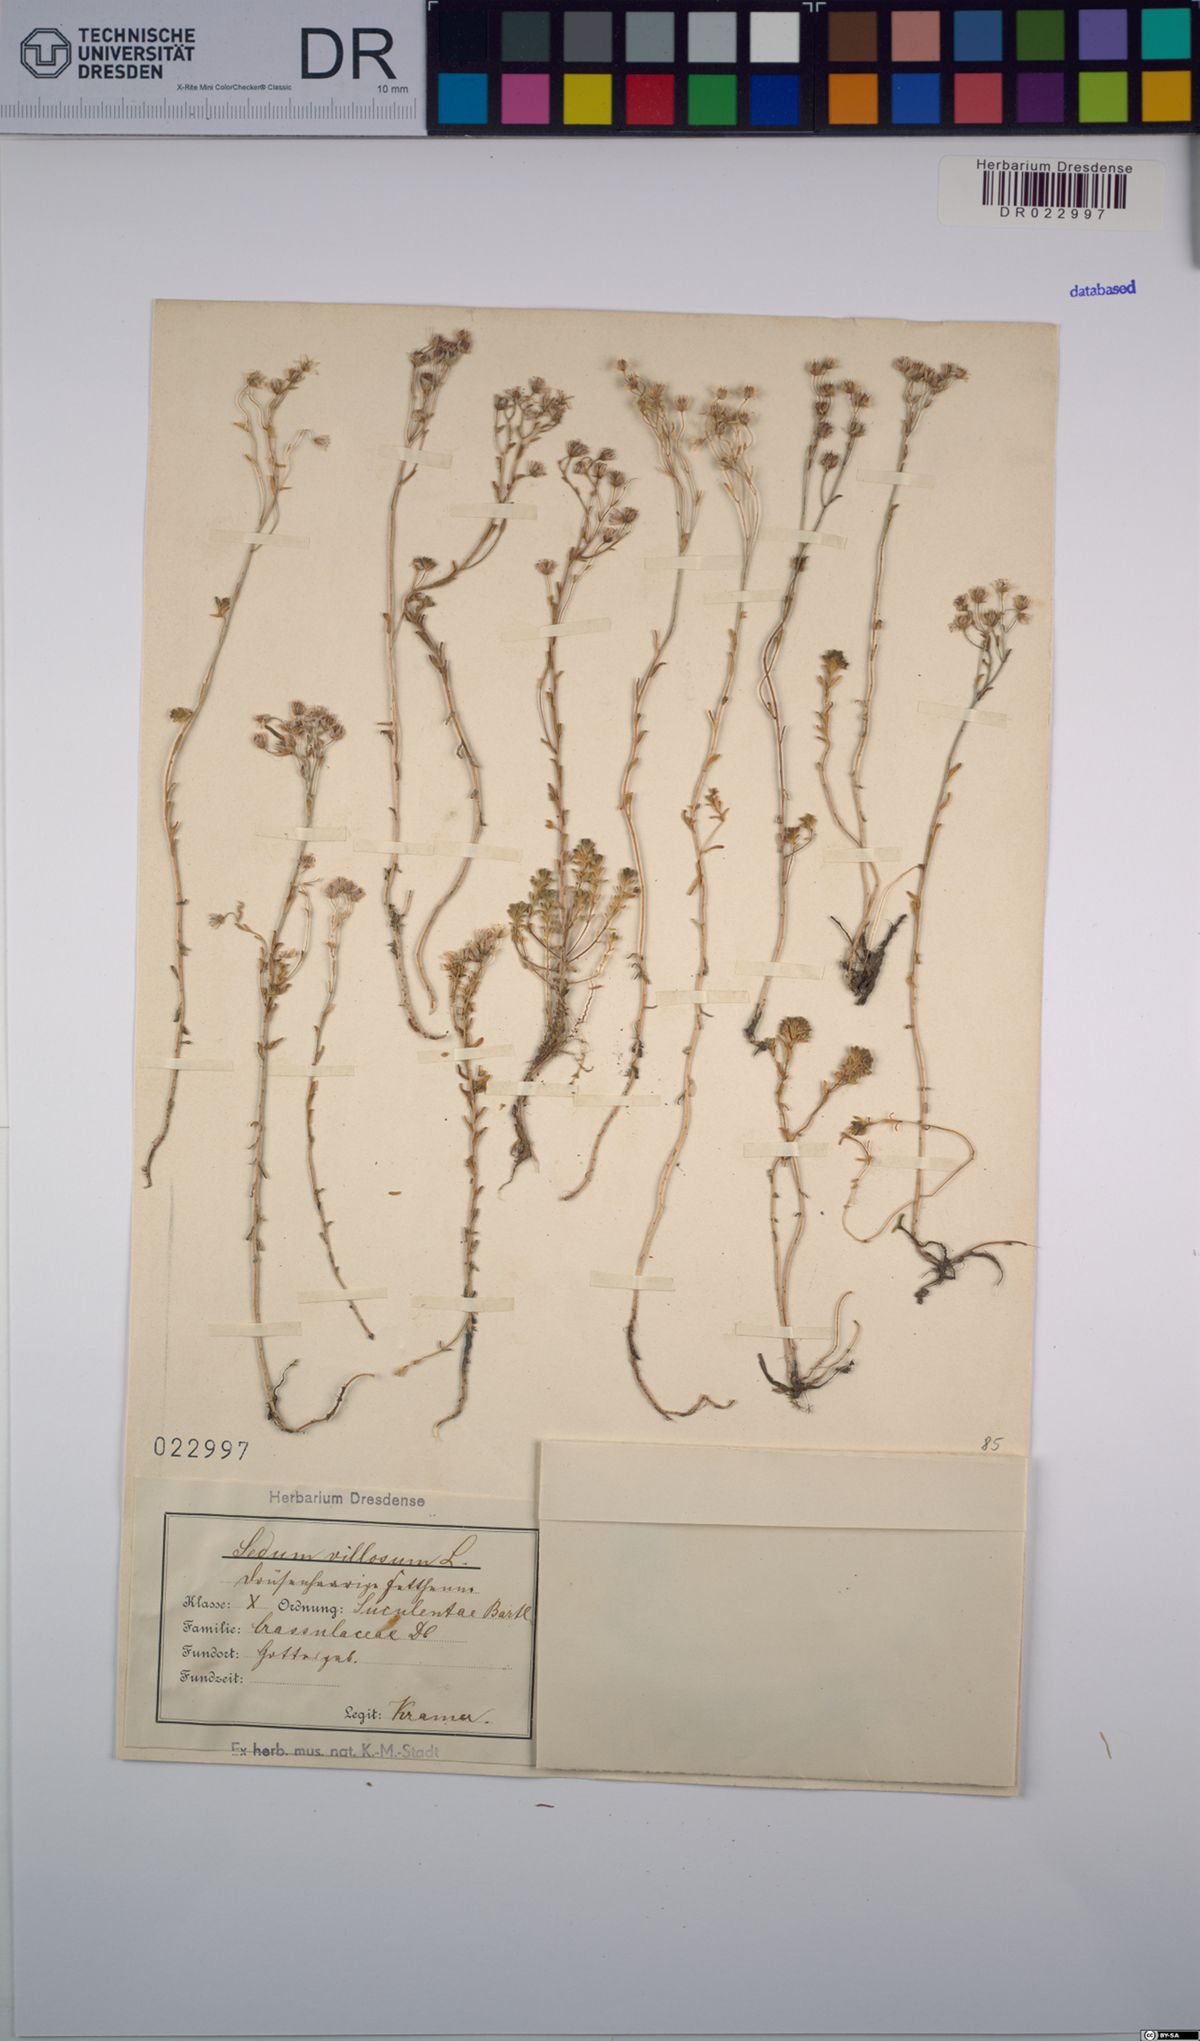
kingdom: Plantae
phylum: Tracheophyta
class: Magnoliopsida
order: Saxifragales
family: Crassulaceae
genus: Sedum
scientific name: Sedum villosum
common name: Hairy stonecrop
